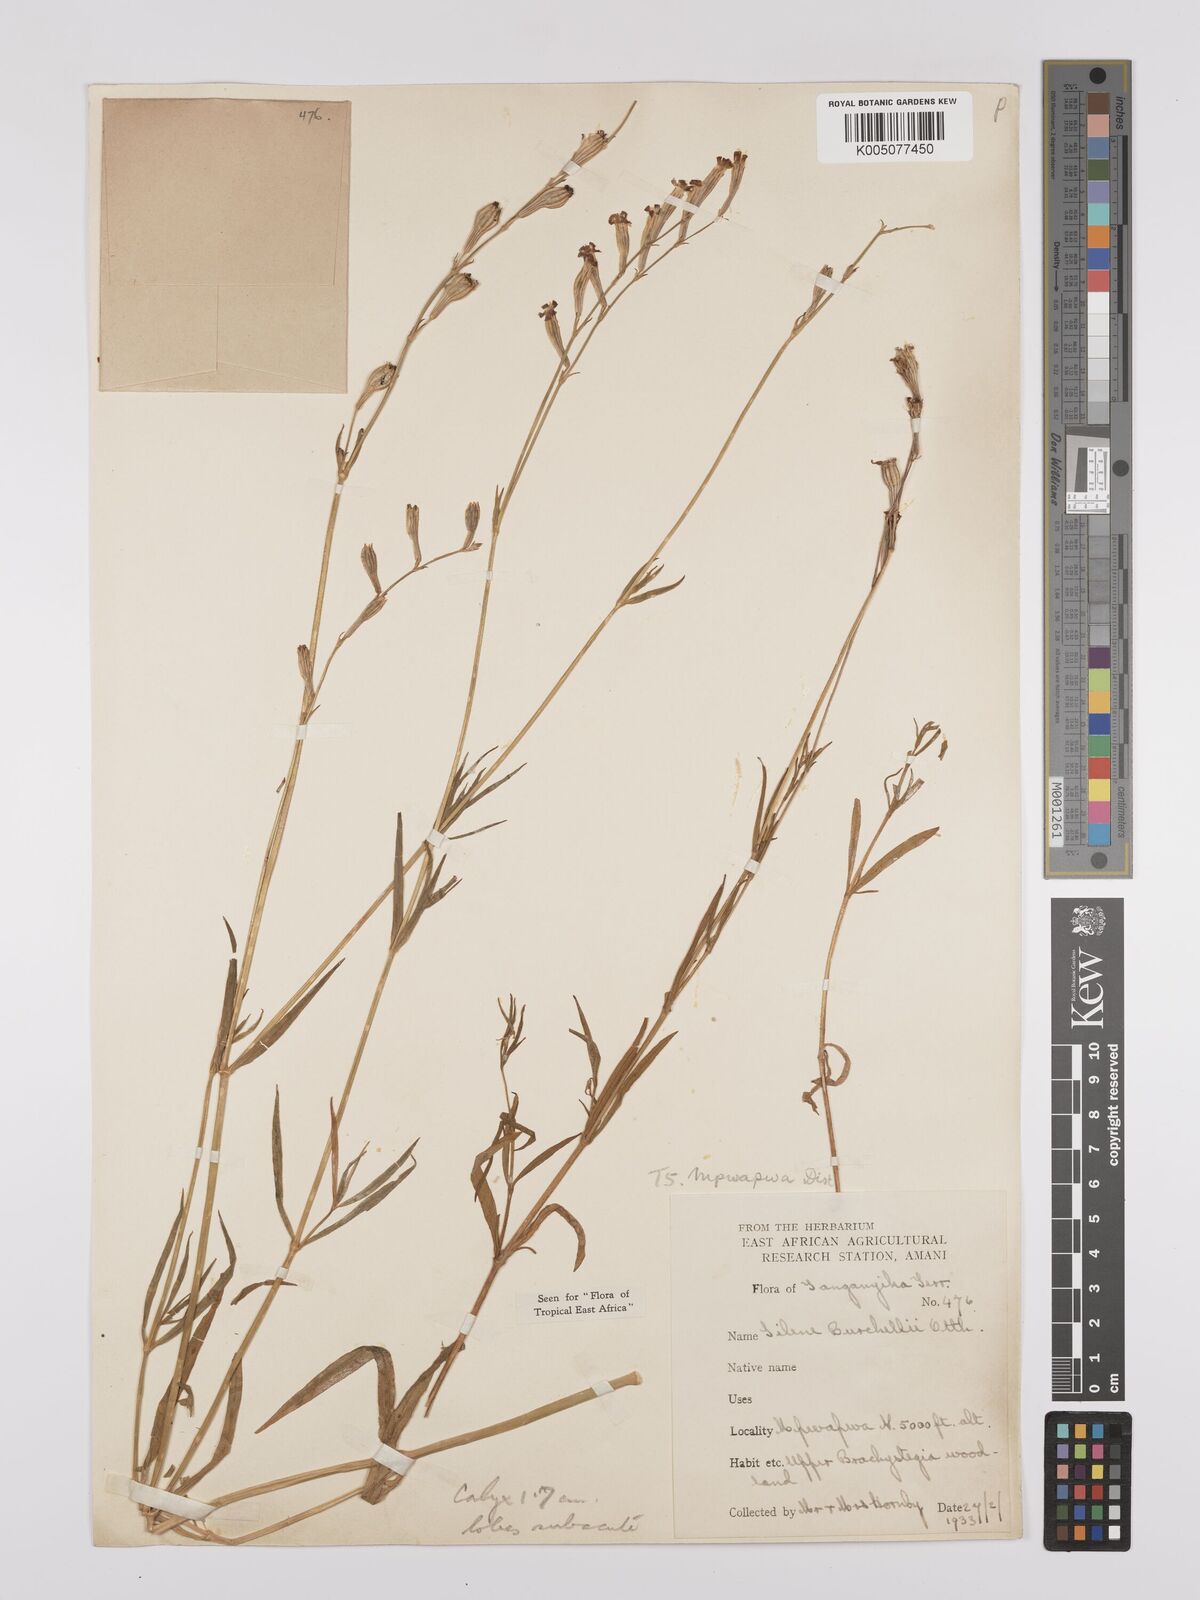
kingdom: Plantae
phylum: Tracheophyta
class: Magnoliopsida
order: Caryophyllales
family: Caryophyllaceae
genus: Silene
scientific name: Silene burchellii
